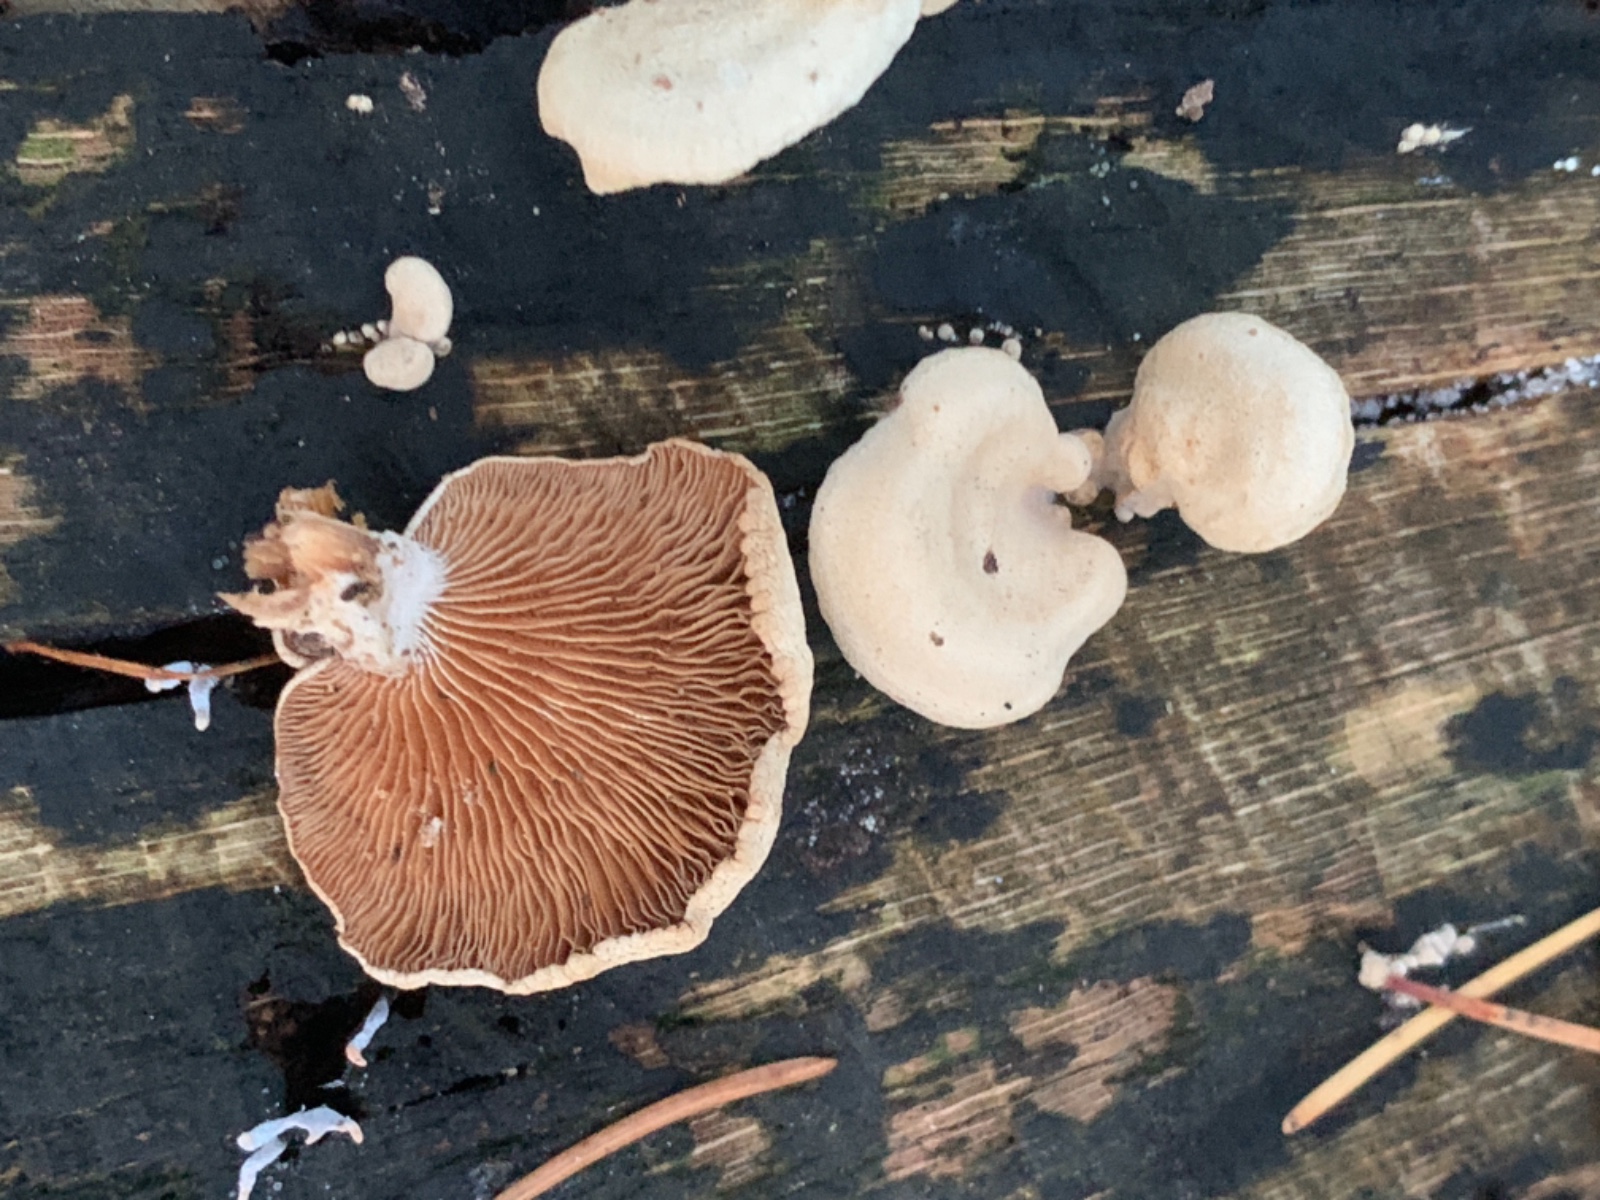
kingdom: Fungi
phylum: Basidiomycota
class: Agaricomycetes
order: Agaricales
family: Mycenaceae
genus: Panellus
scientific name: Panellus stipticus
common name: kliddet epaulethat
